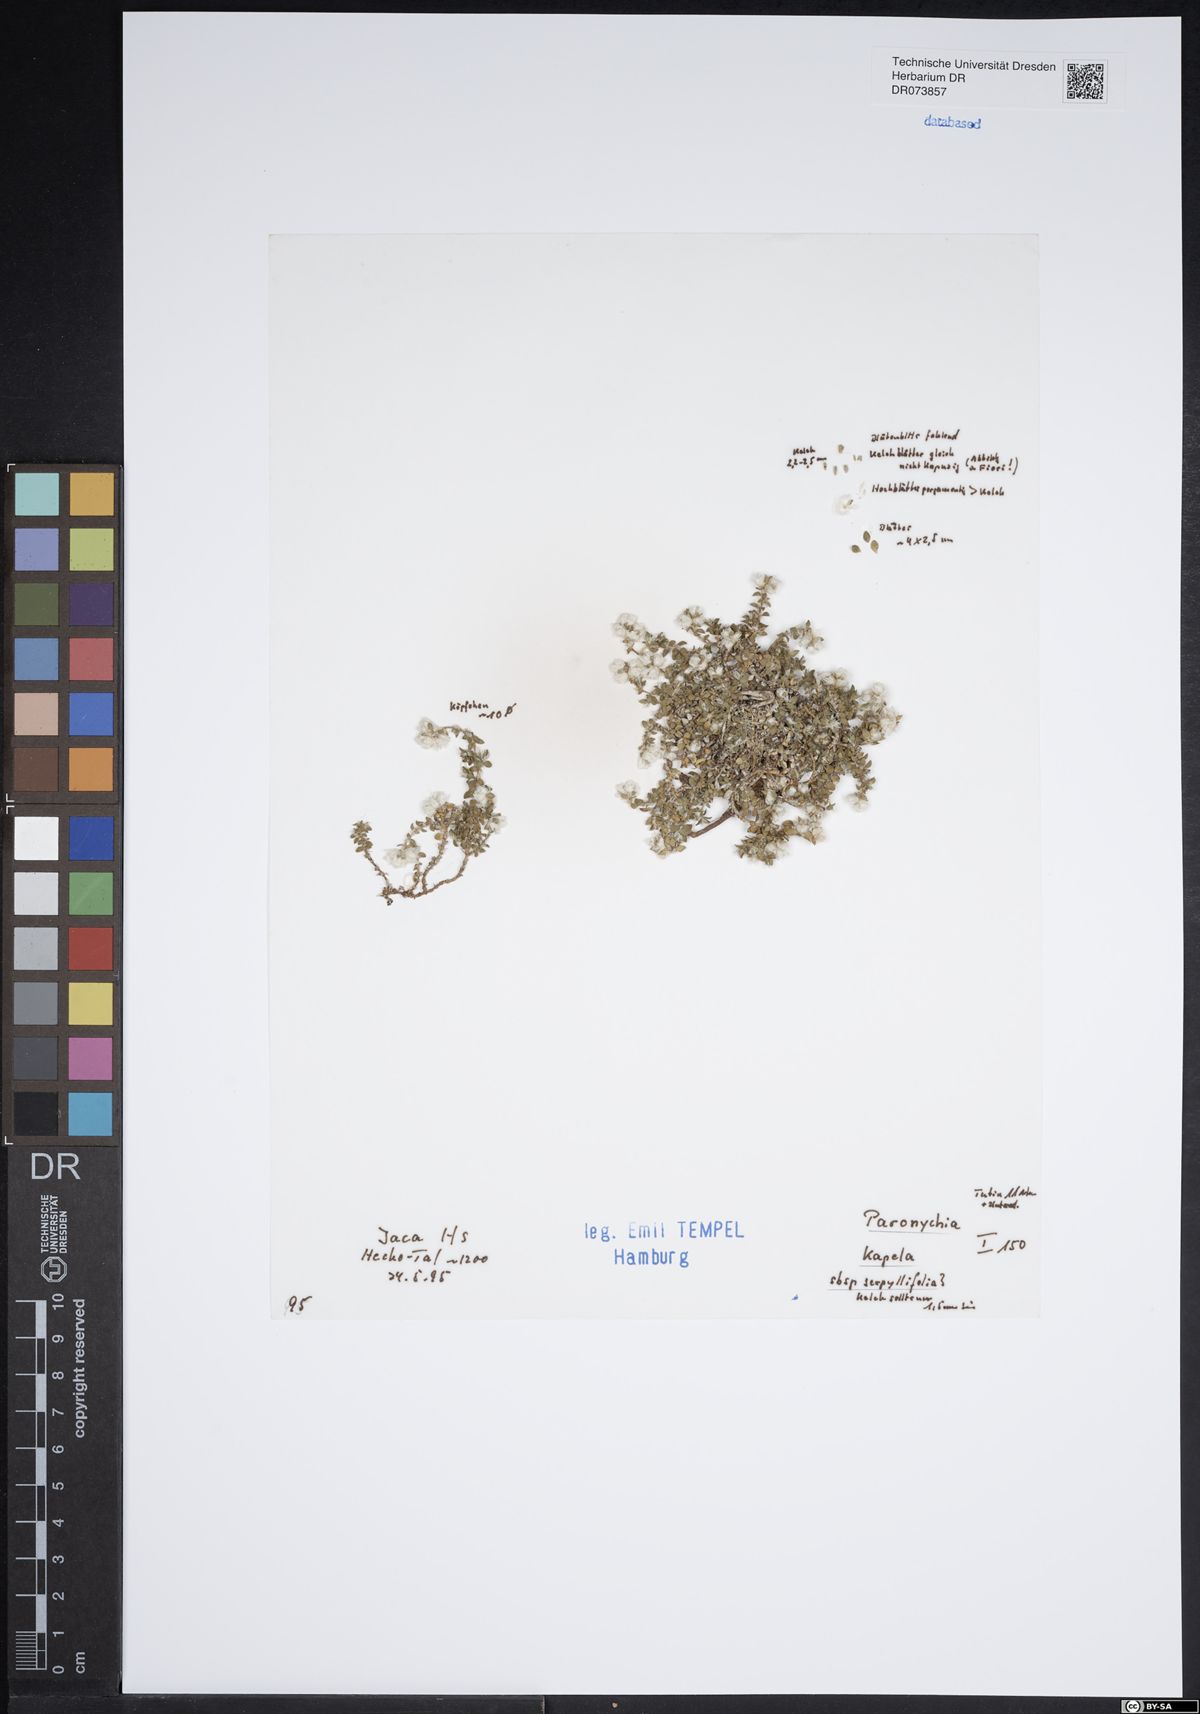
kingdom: Plantae
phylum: Tracheophyta
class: Magnoliopsida
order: Caryophyllales
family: Caryophyllaceae
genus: Paronychia
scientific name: Paronychia kapela
